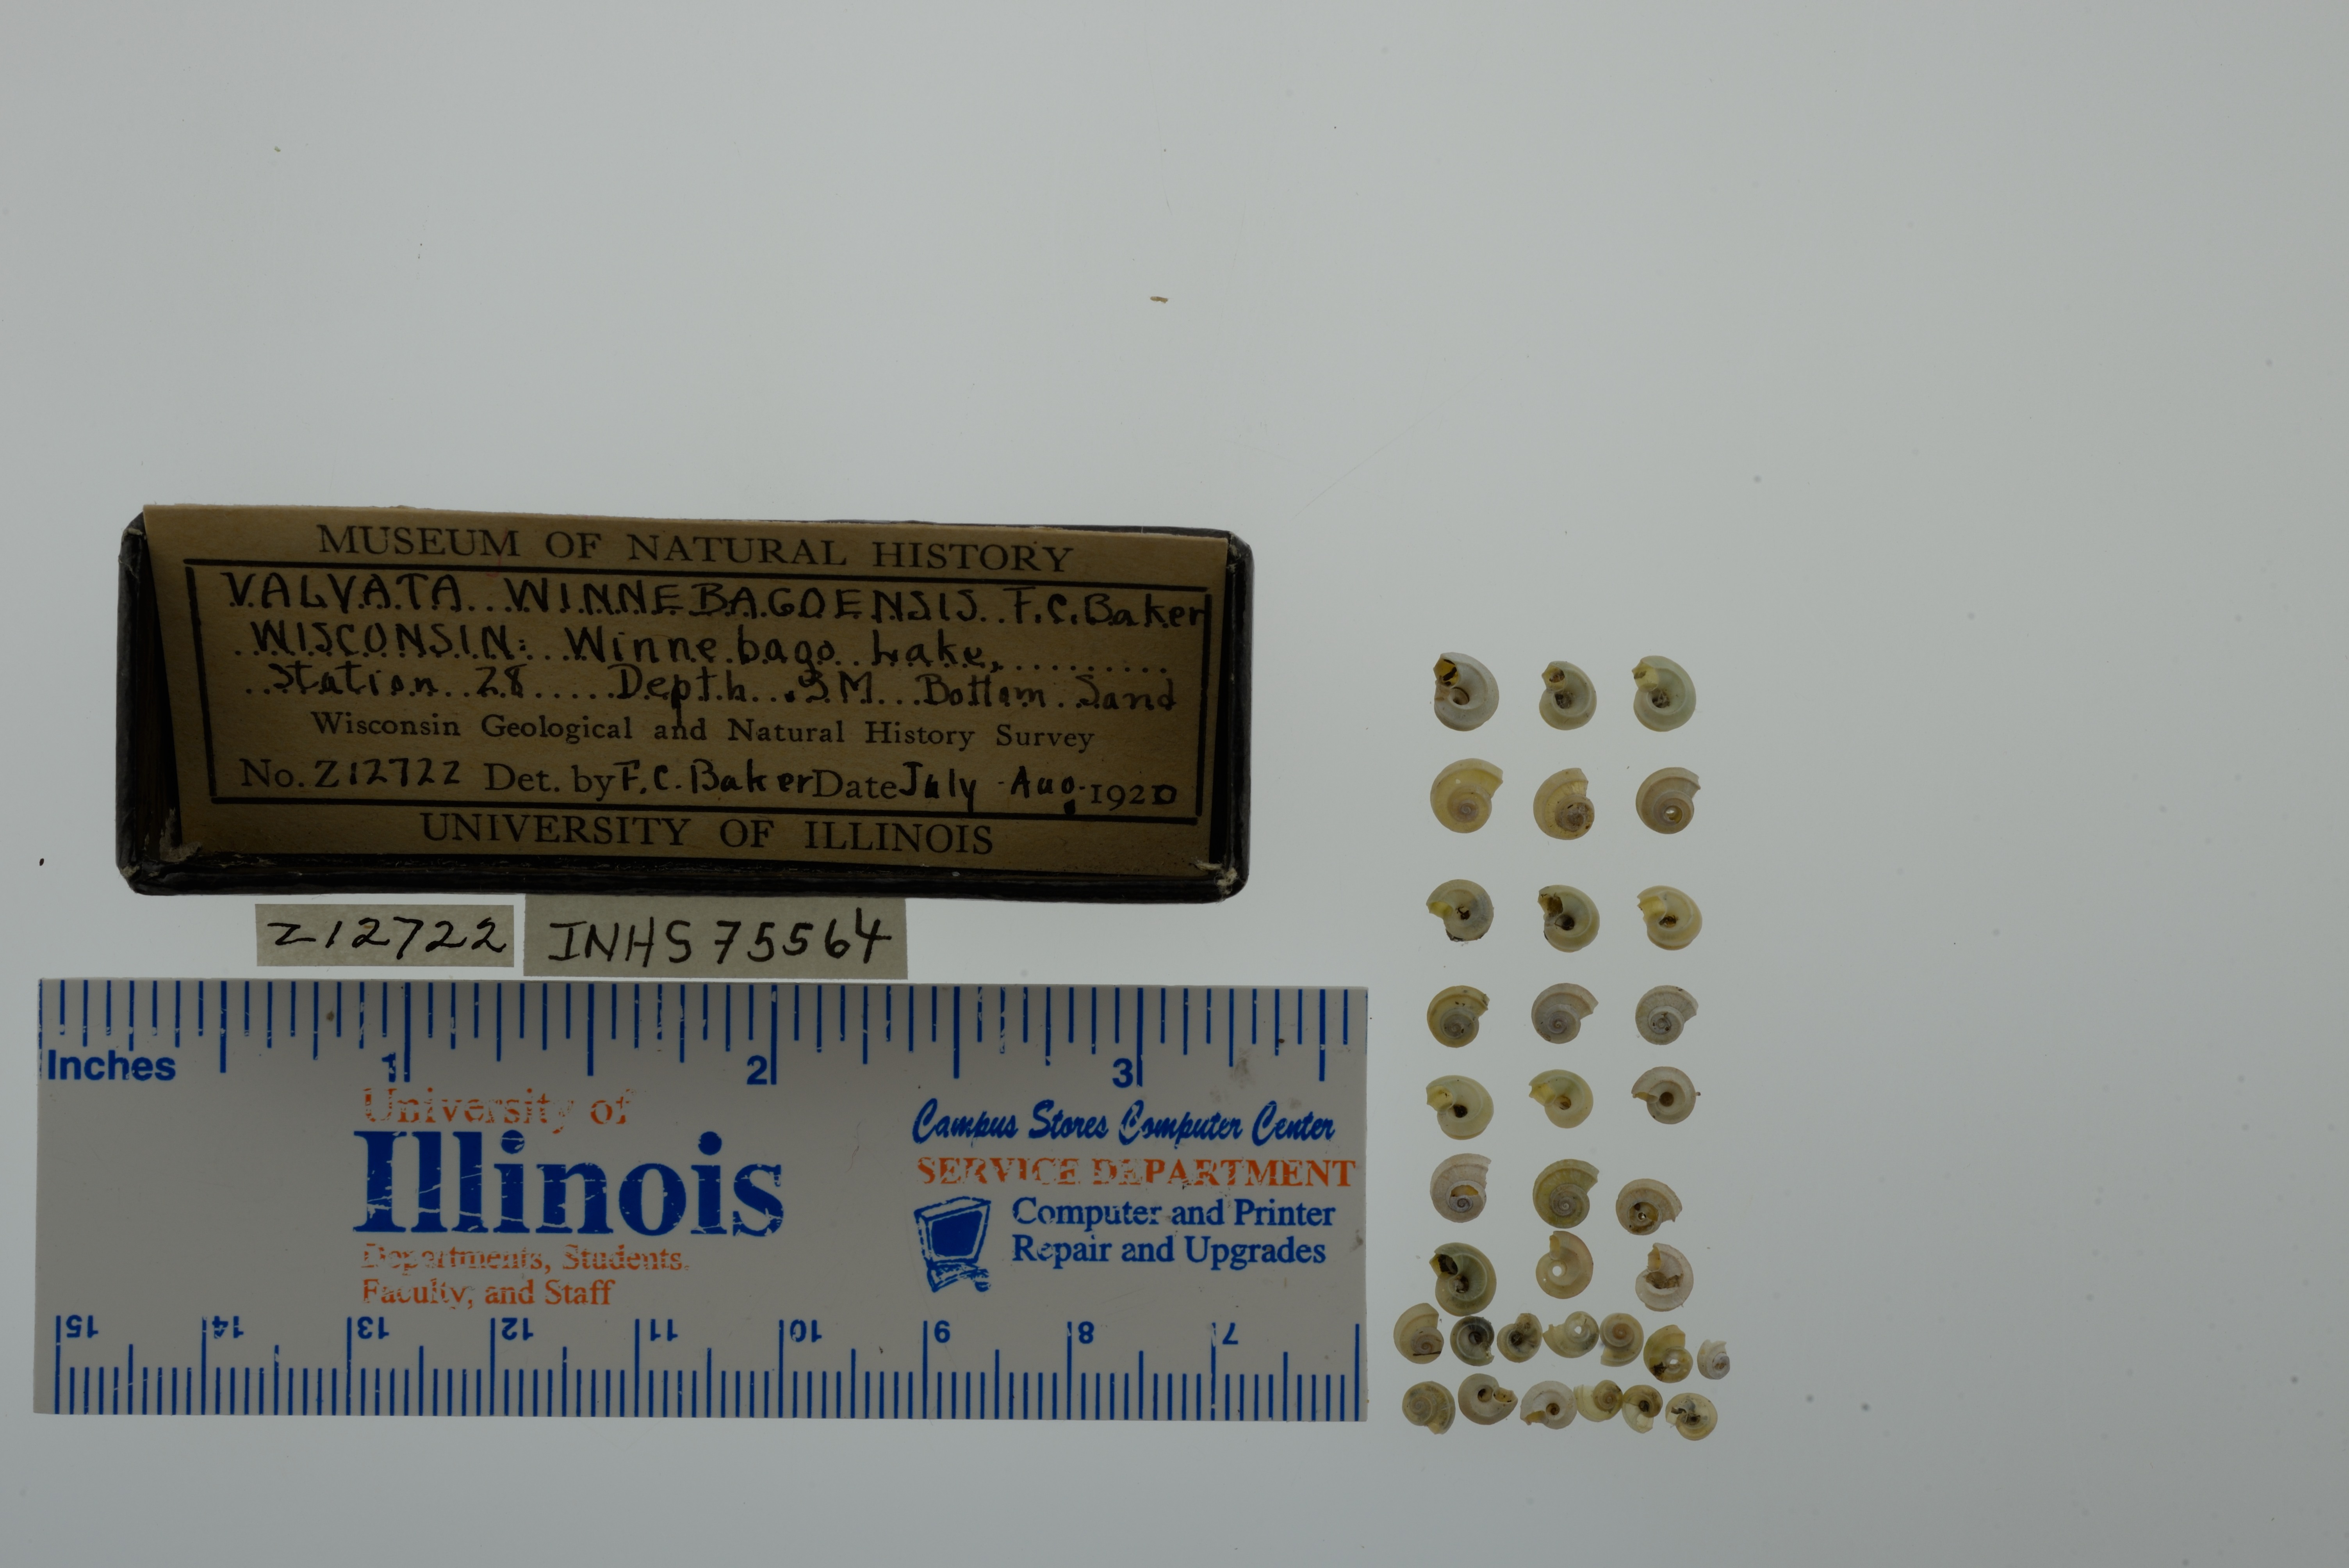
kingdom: Animalia
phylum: Mollusca
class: Gastropoda
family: Valvatidae
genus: Valvata
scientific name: Valvata winnebagoensis
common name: Flanged valvata
